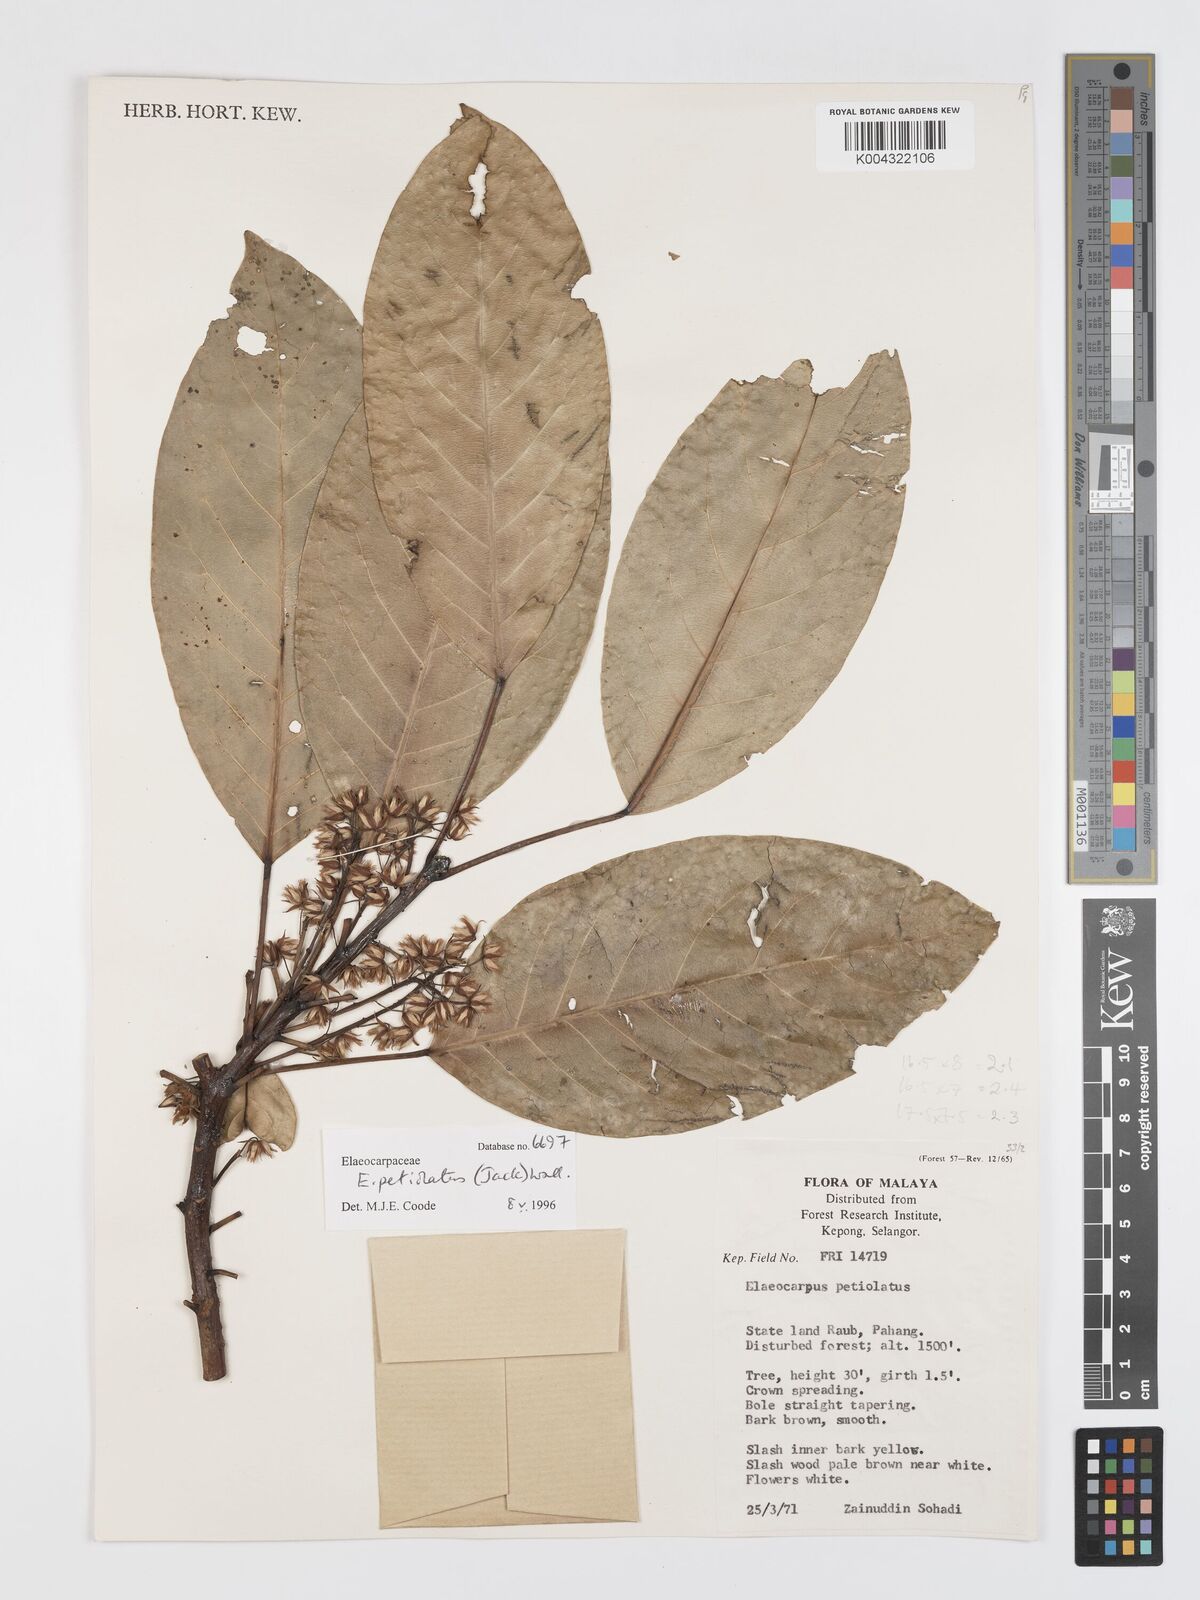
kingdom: Plantae
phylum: Tracheophyta
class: Magnoliopsida
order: Oxalidales
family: Elaeocarpaceae
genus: Elaeocarpus
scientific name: Elaeocarpus petiolatus
